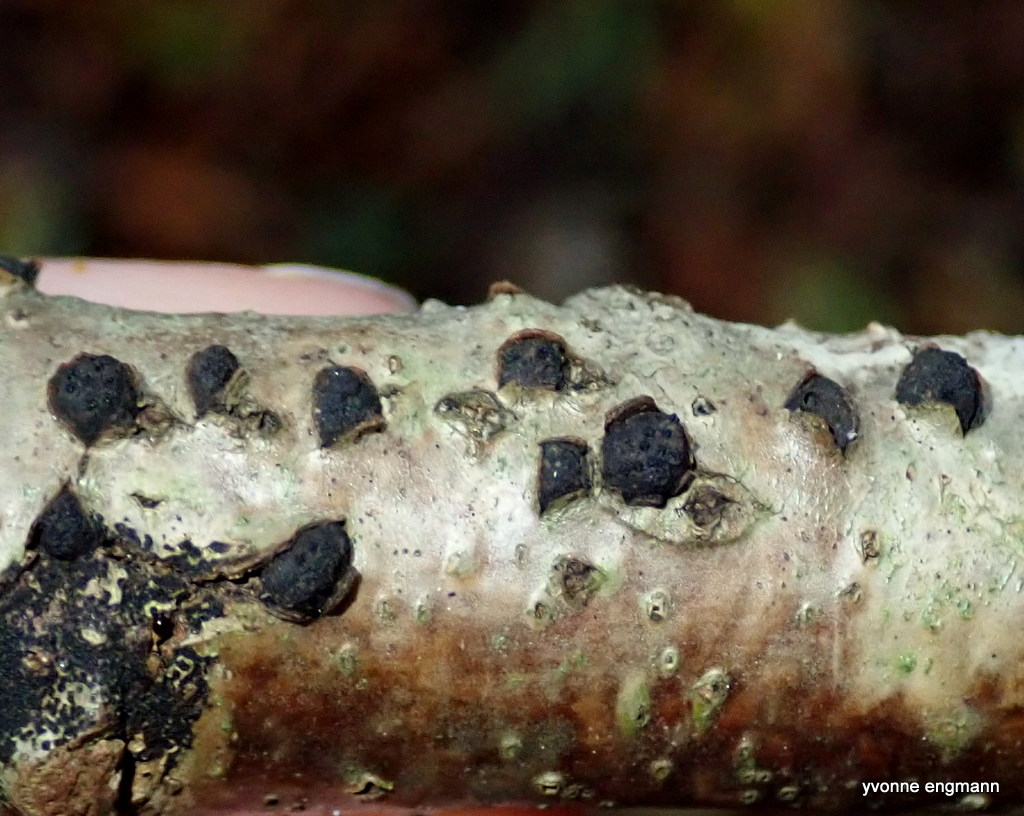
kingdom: Fungi
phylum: Ascomycota
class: Sordariomycetes
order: Xylariales
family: Diatrypaceae
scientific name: Diatrypaceae
